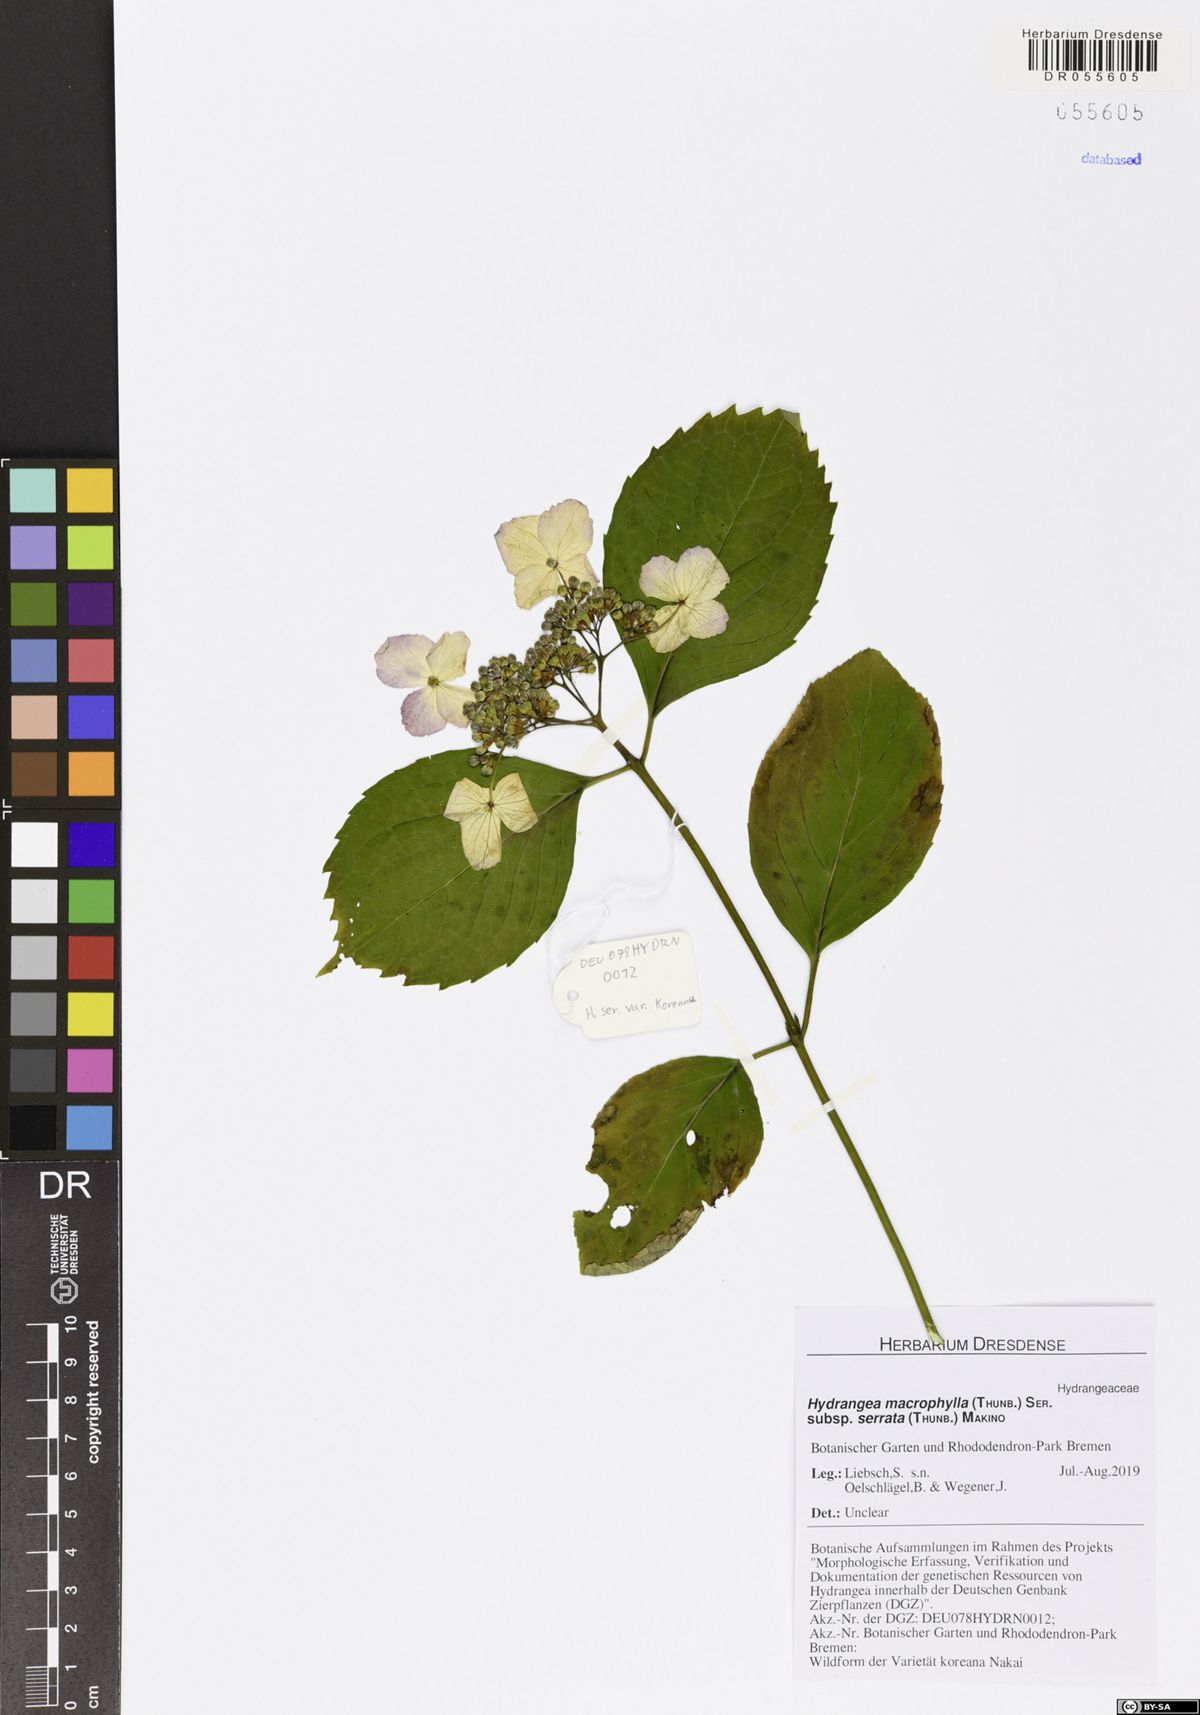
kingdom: Plantae
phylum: Tracheophyta
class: Magnoliopsida
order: Cornales
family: Hydrangeaceae
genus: Hydrangea
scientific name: Hydrangea serrata
